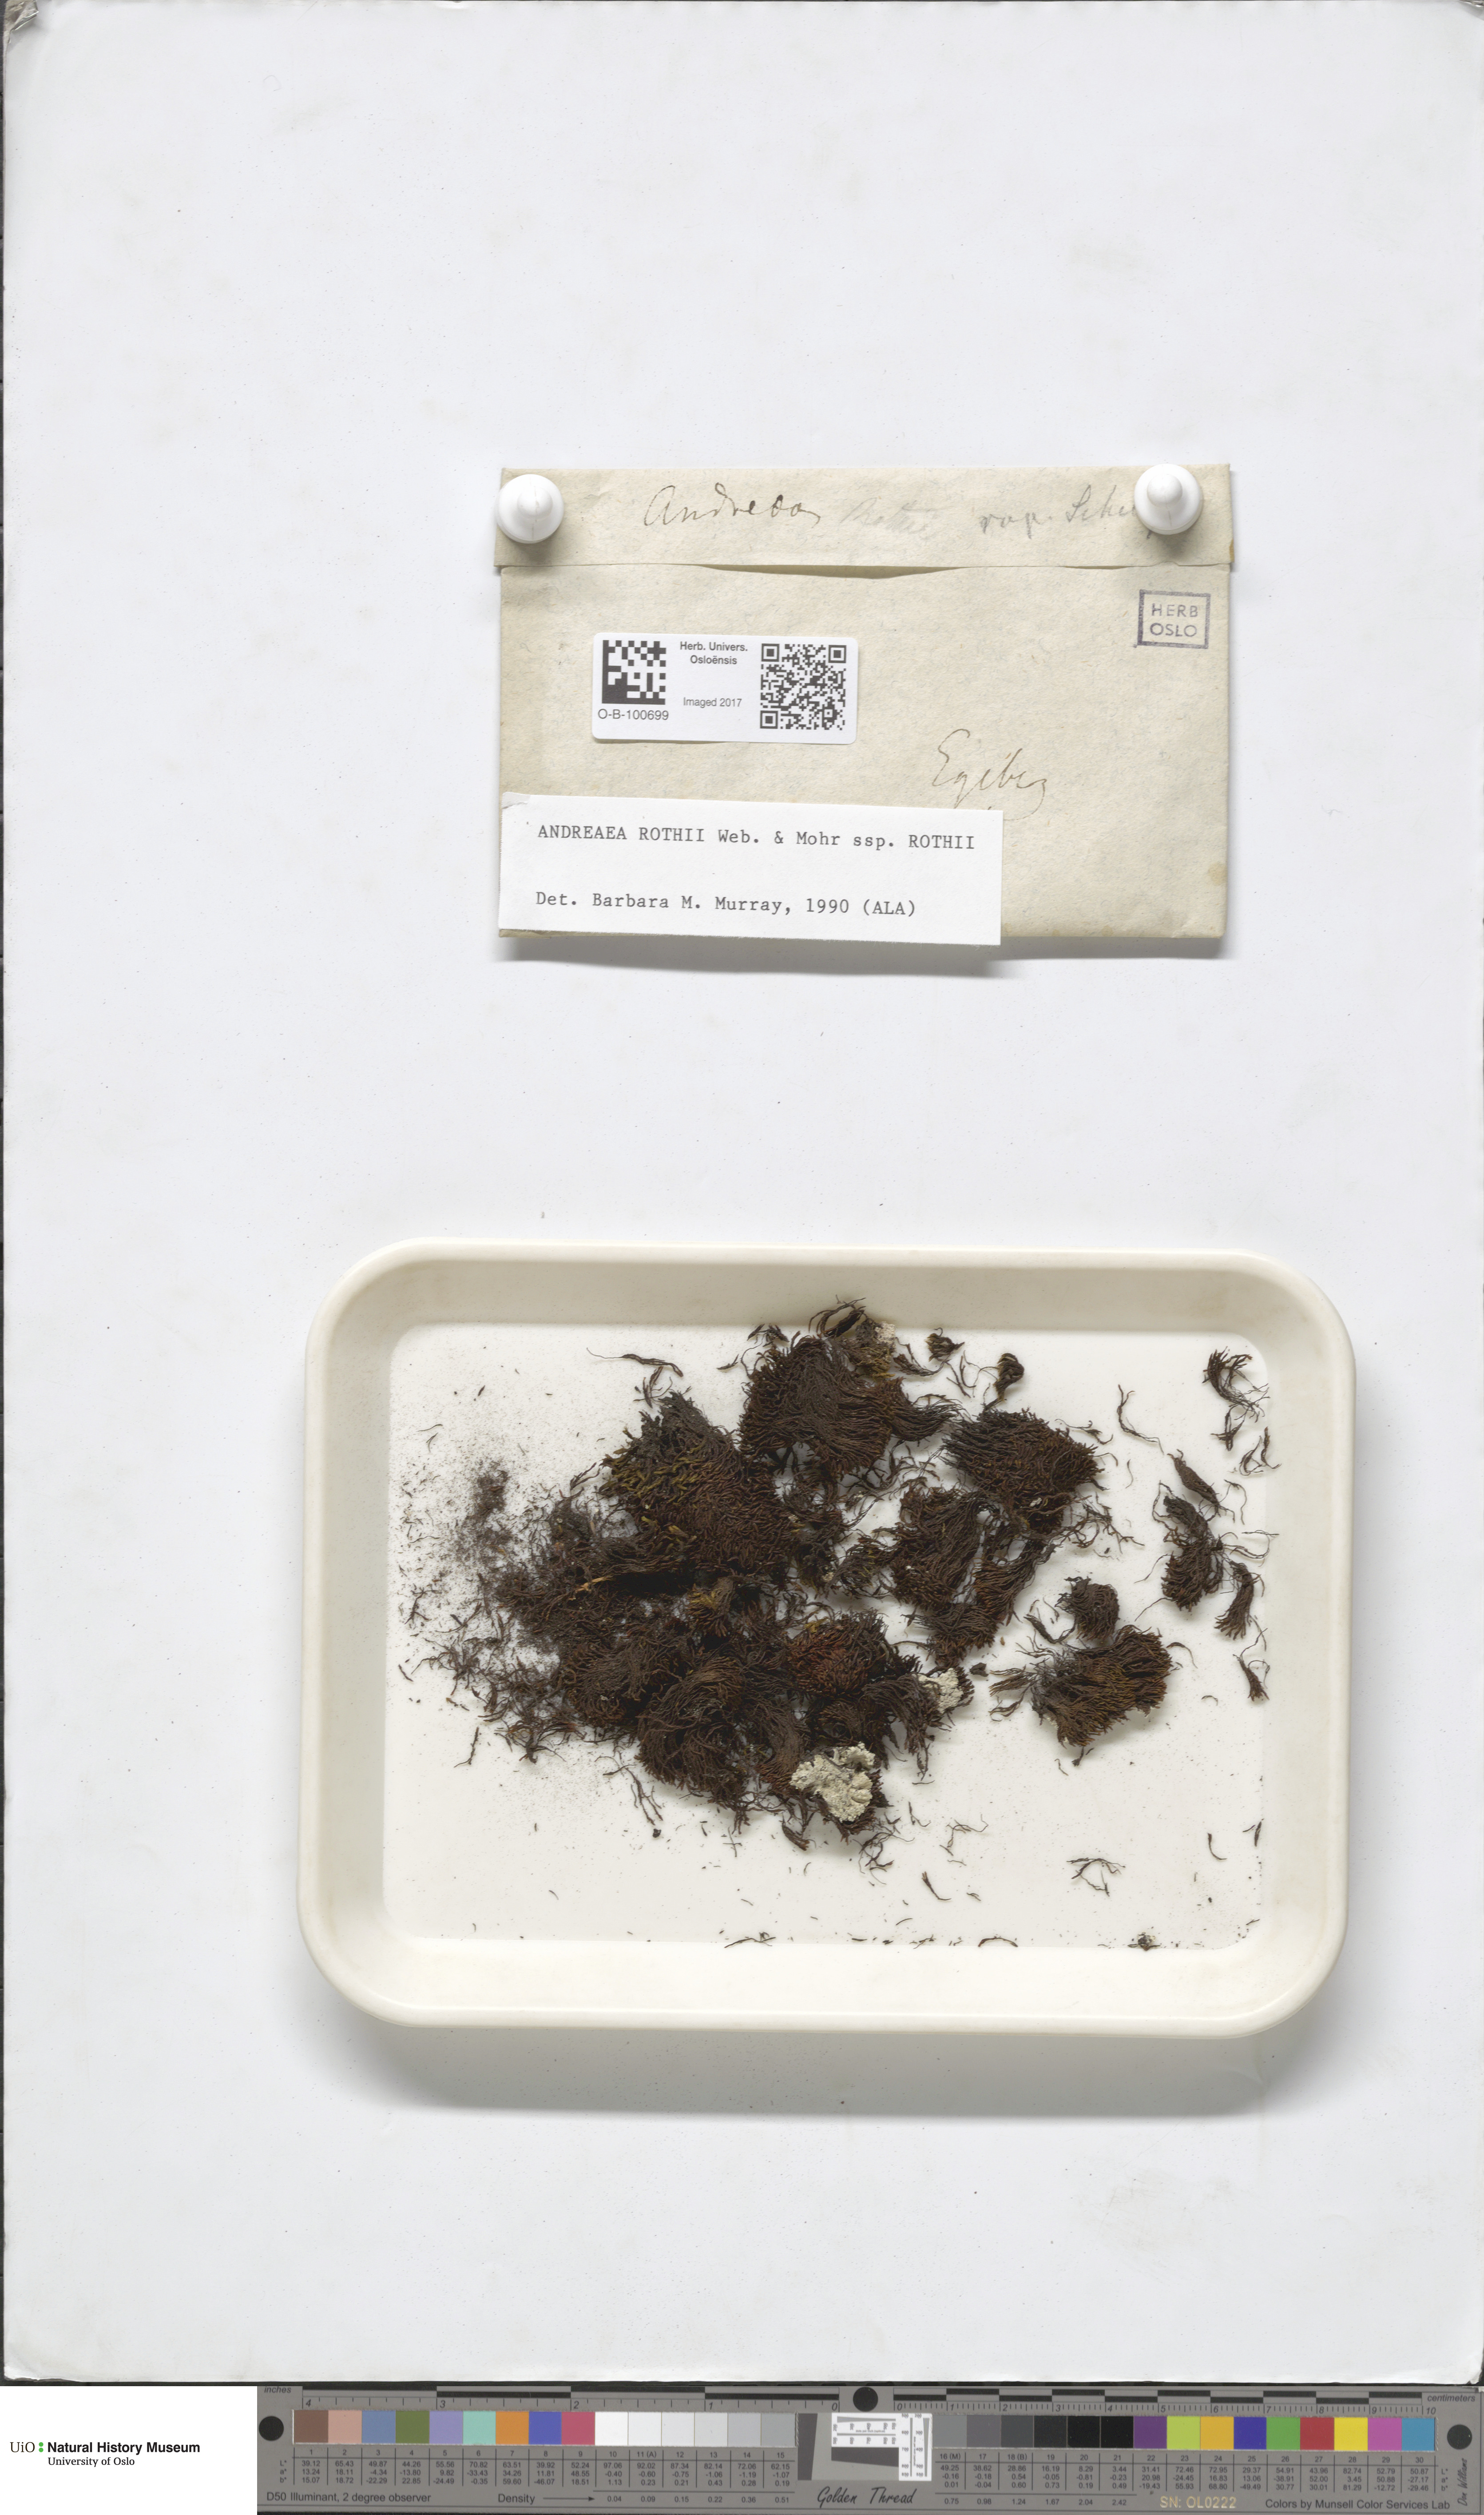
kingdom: Plantae
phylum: Bryophyta
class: Andreaeopsida
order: Andreaeales
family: Andreaeaceae
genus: Andreaea
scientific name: Andreaea rothii
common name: Dusky rock moss
